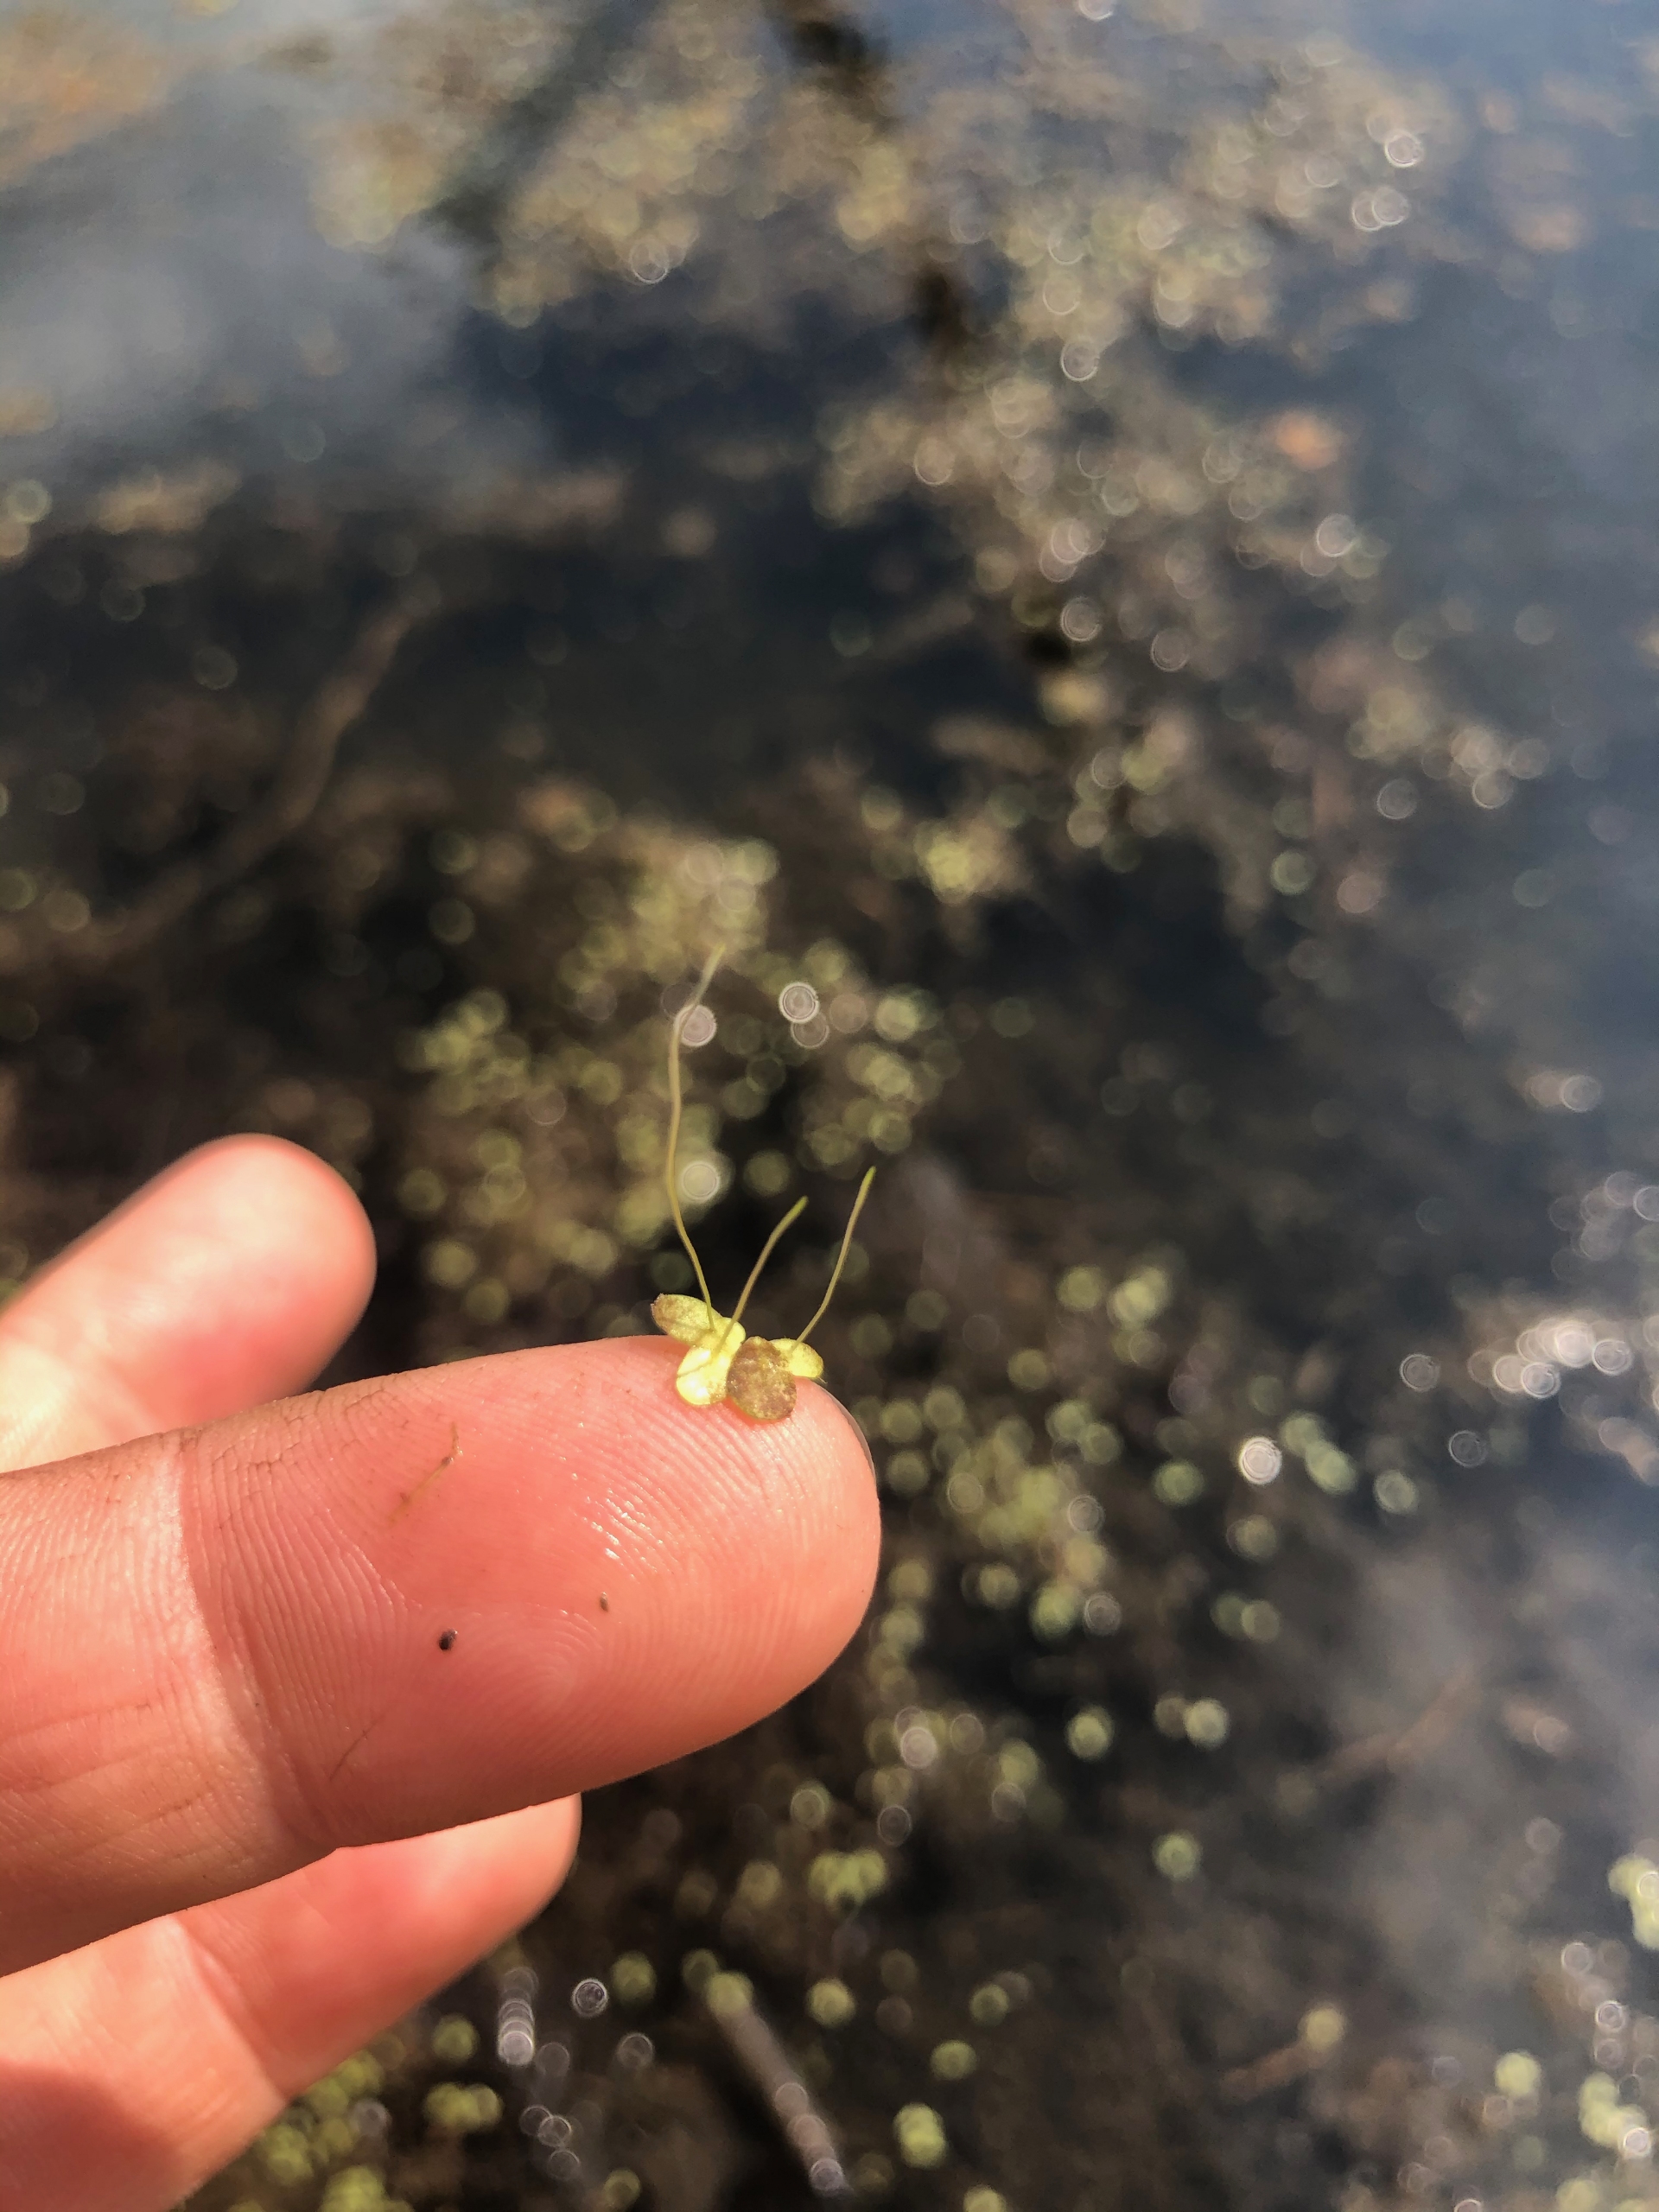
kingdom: Plantae
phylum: Tracheophyta
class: Liliopsida
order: Alismatales
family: Araceae
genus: Lemna
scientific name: Lemna minor
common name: Liden andemad
